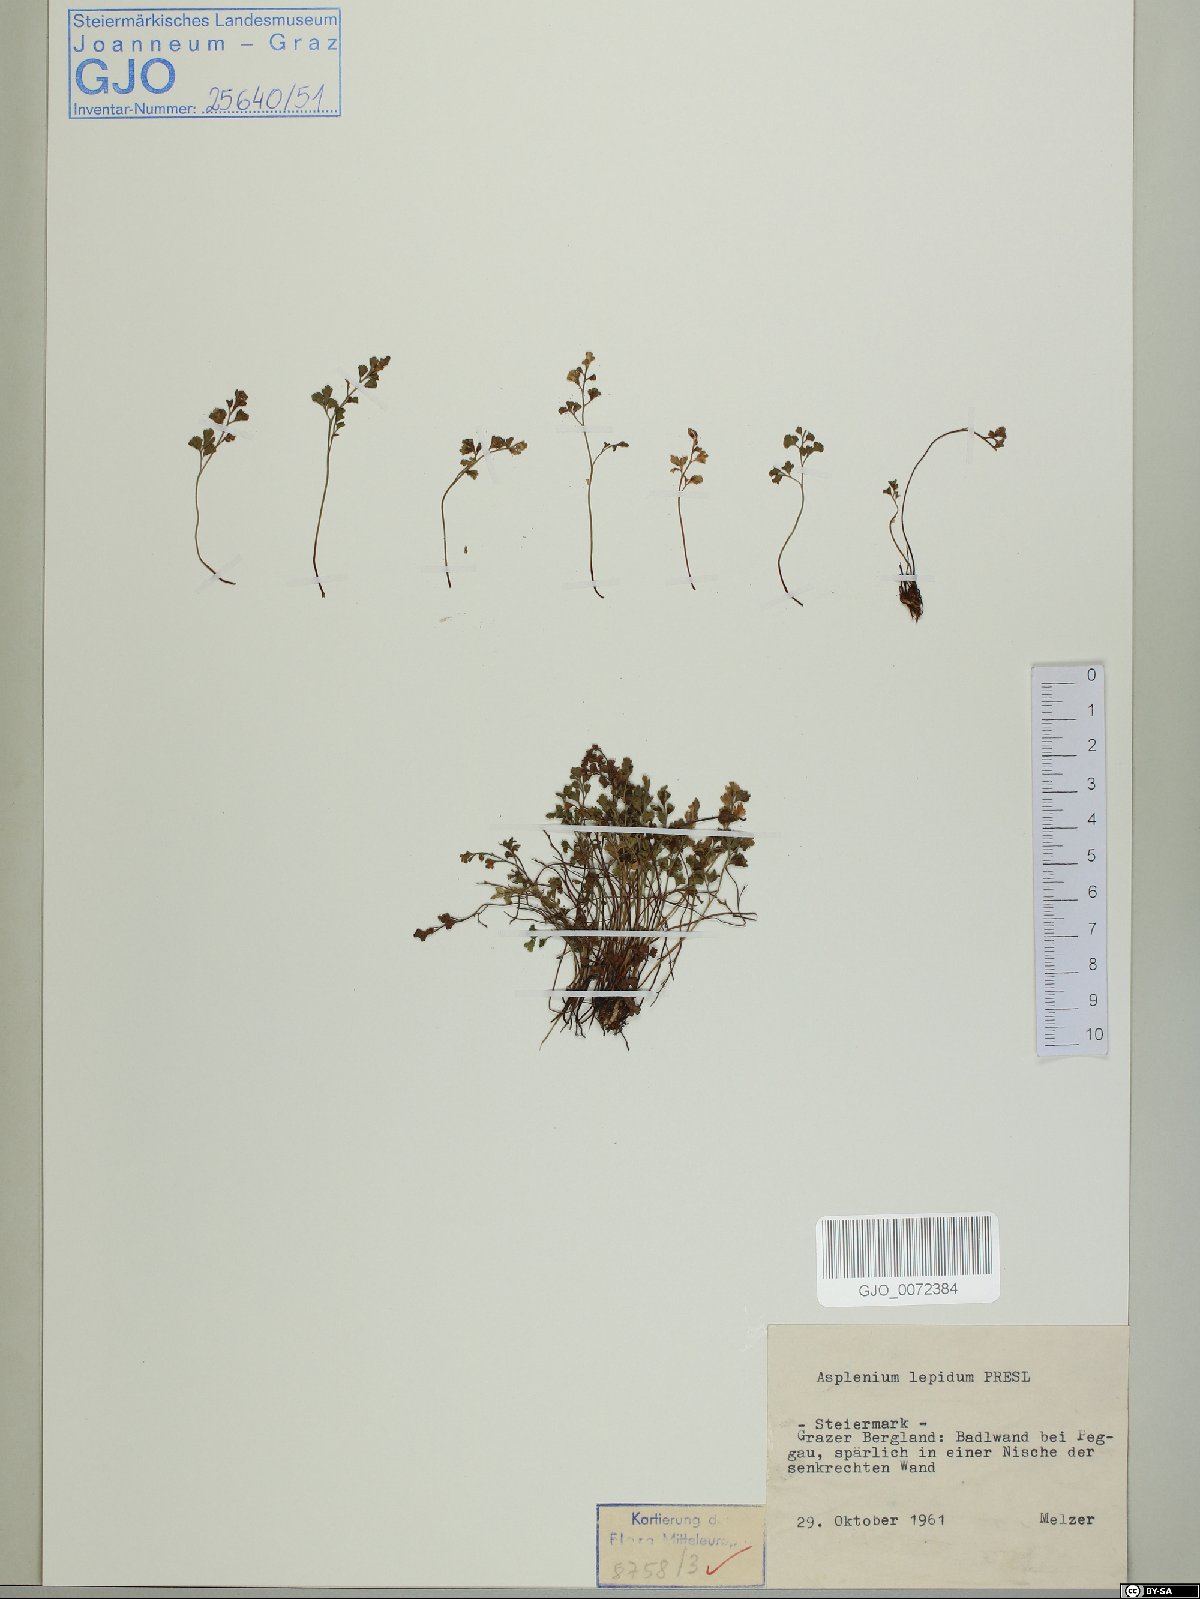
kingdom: Plantae
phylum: Tracheophyta
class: Polypodiopsida
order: Polypodiales
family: Aspleniaceae
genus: Asplenium
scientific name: Asplenium lepidum
